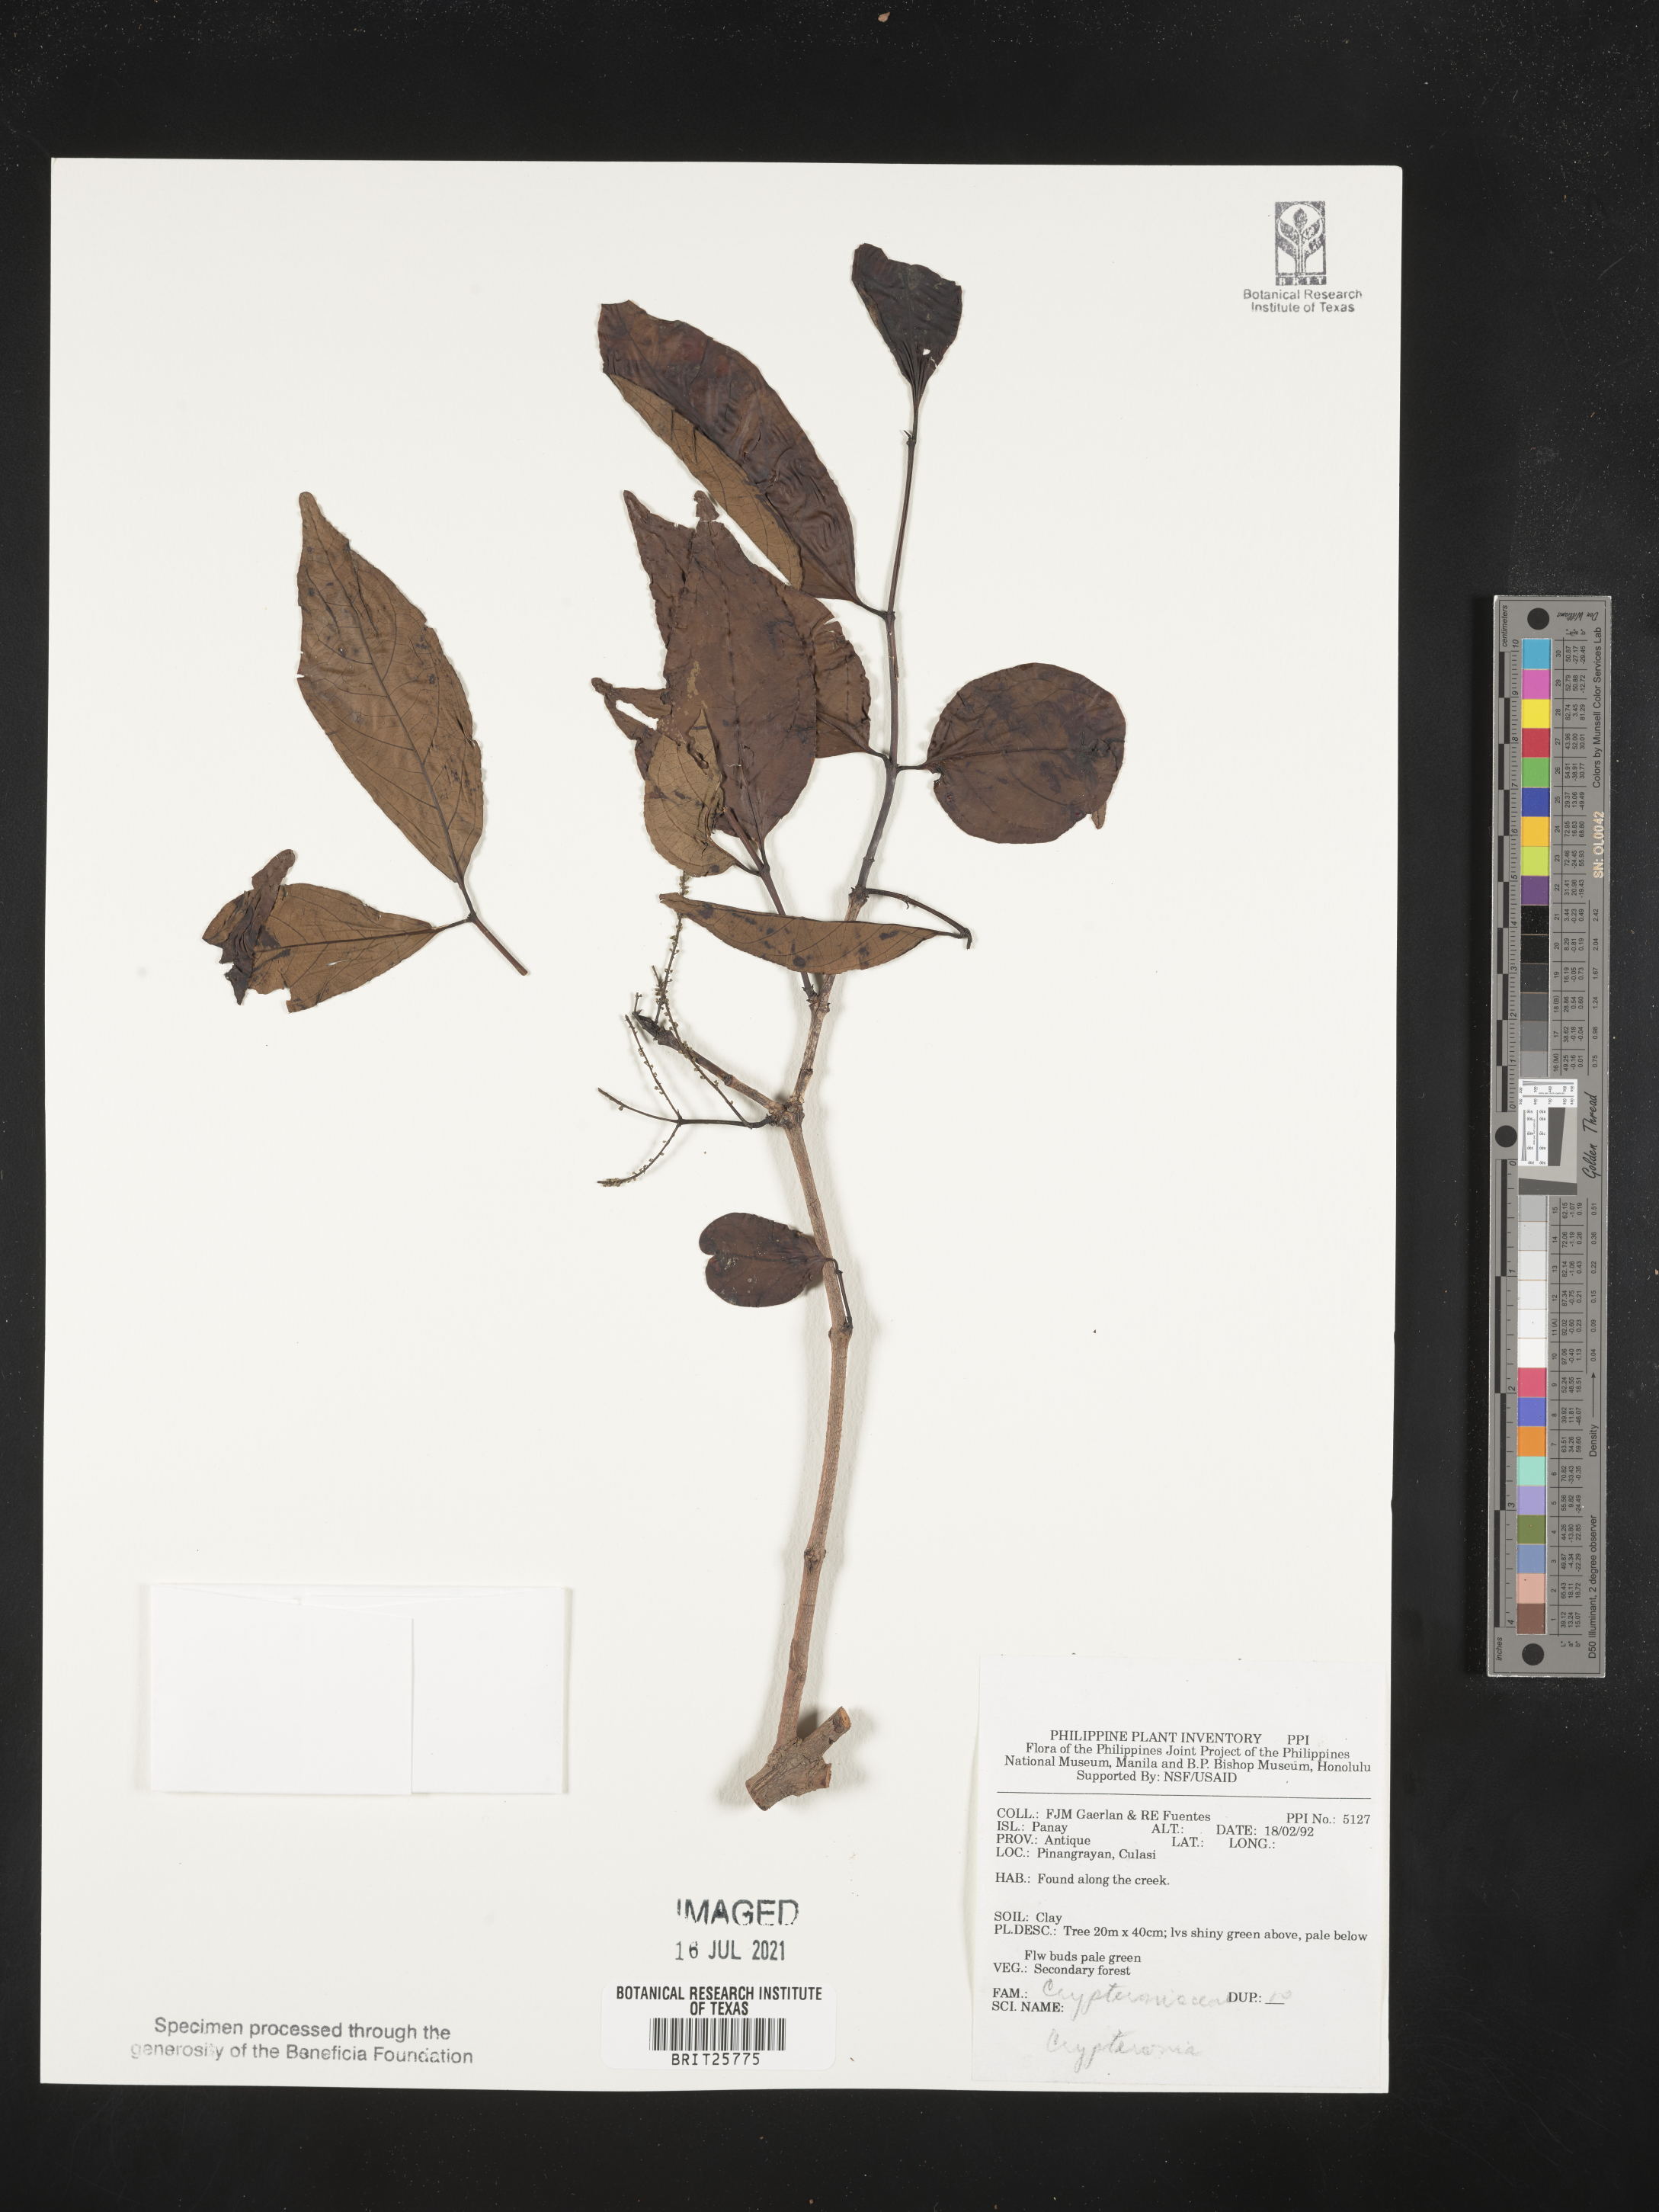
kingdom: Plantae
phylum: Tracheophyta
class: Magnoliopsida
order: Myrtales
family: Crypteroniaceae
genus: Crypteronia
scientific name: Crypteronia
